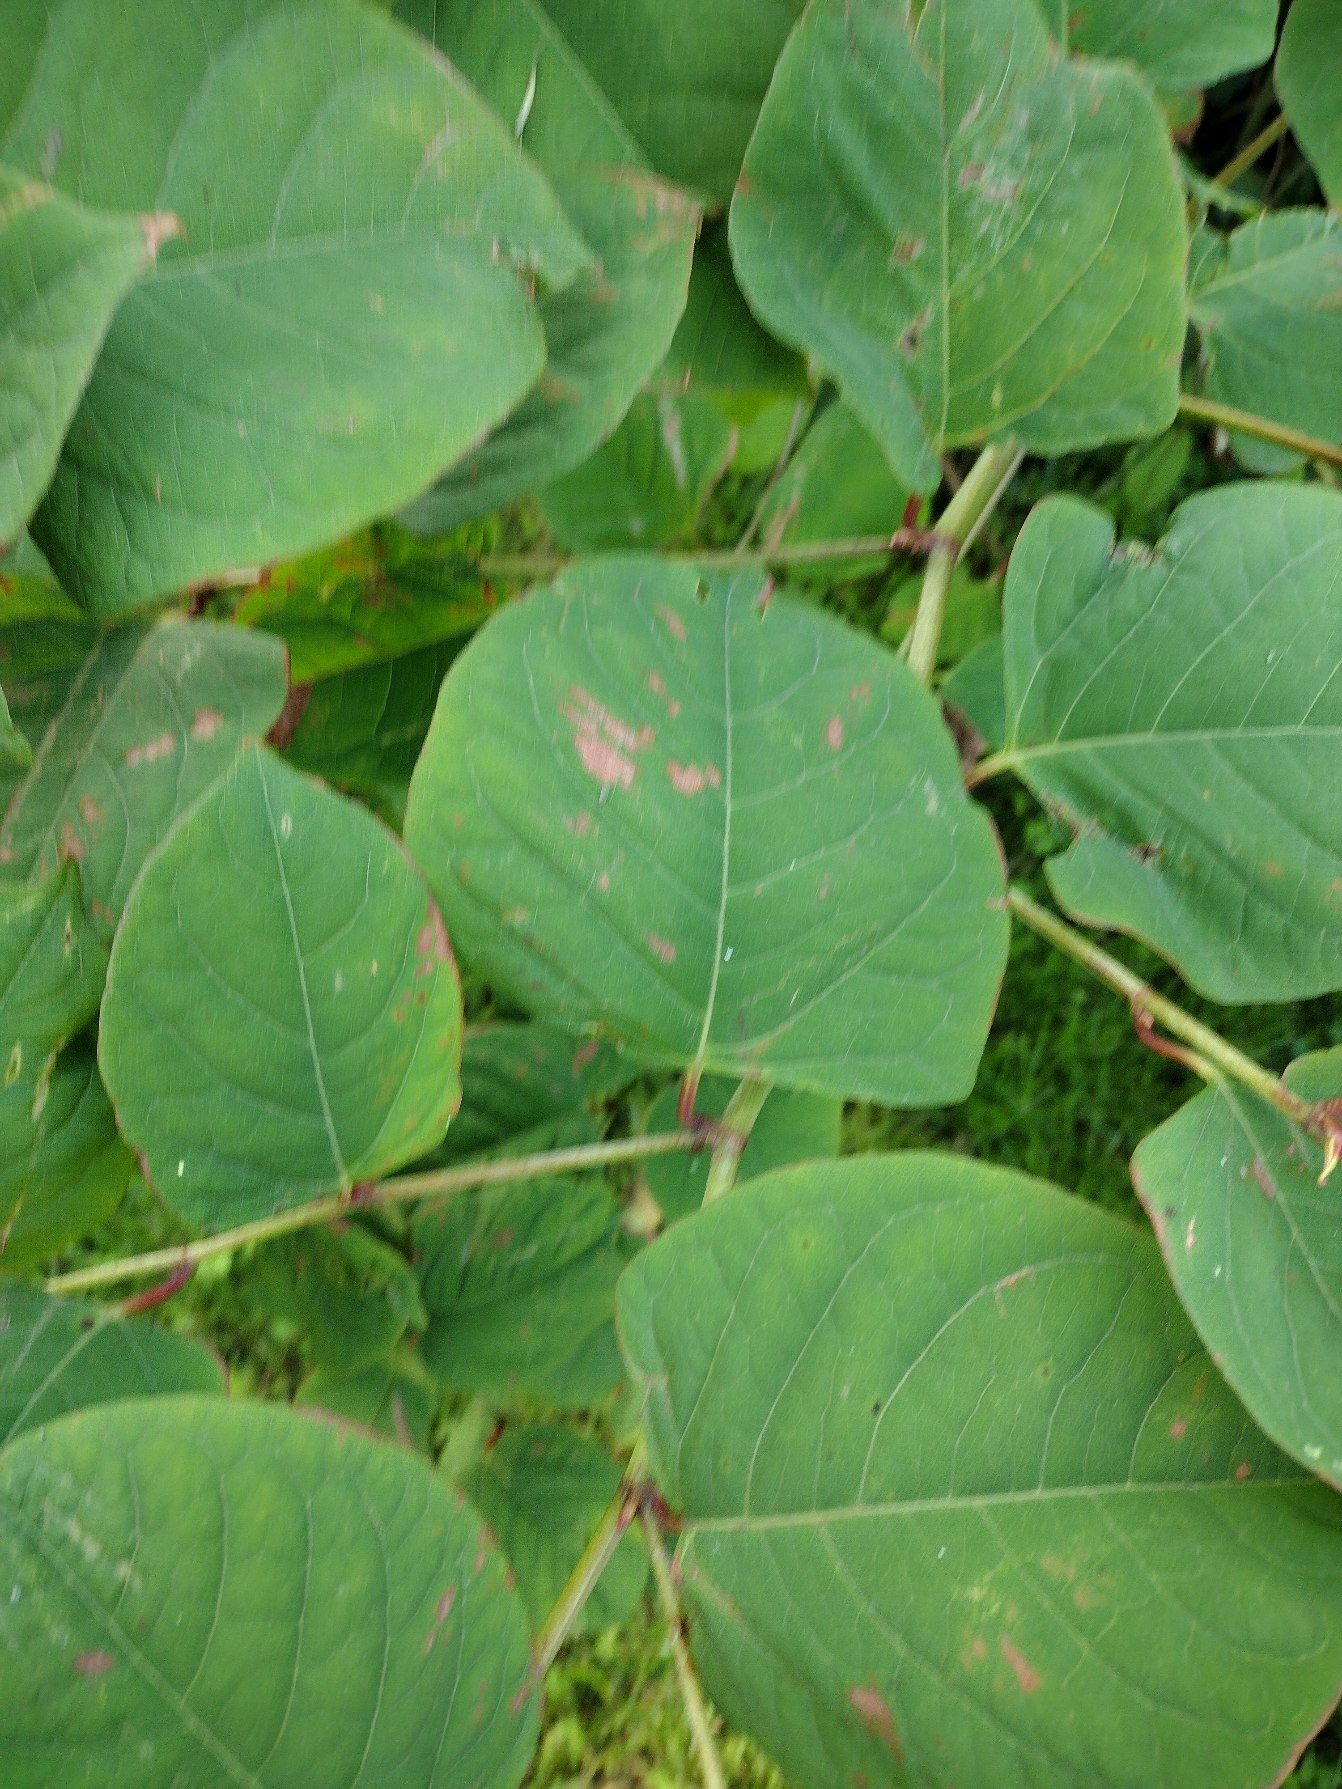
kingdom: Plantae
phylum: Tracheophyta
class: Magnoliopsida
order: Caryophyllales
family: Polygonaceae
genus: Reynoutria
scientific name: Reynoutria japonica
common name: Japan-pileurt
